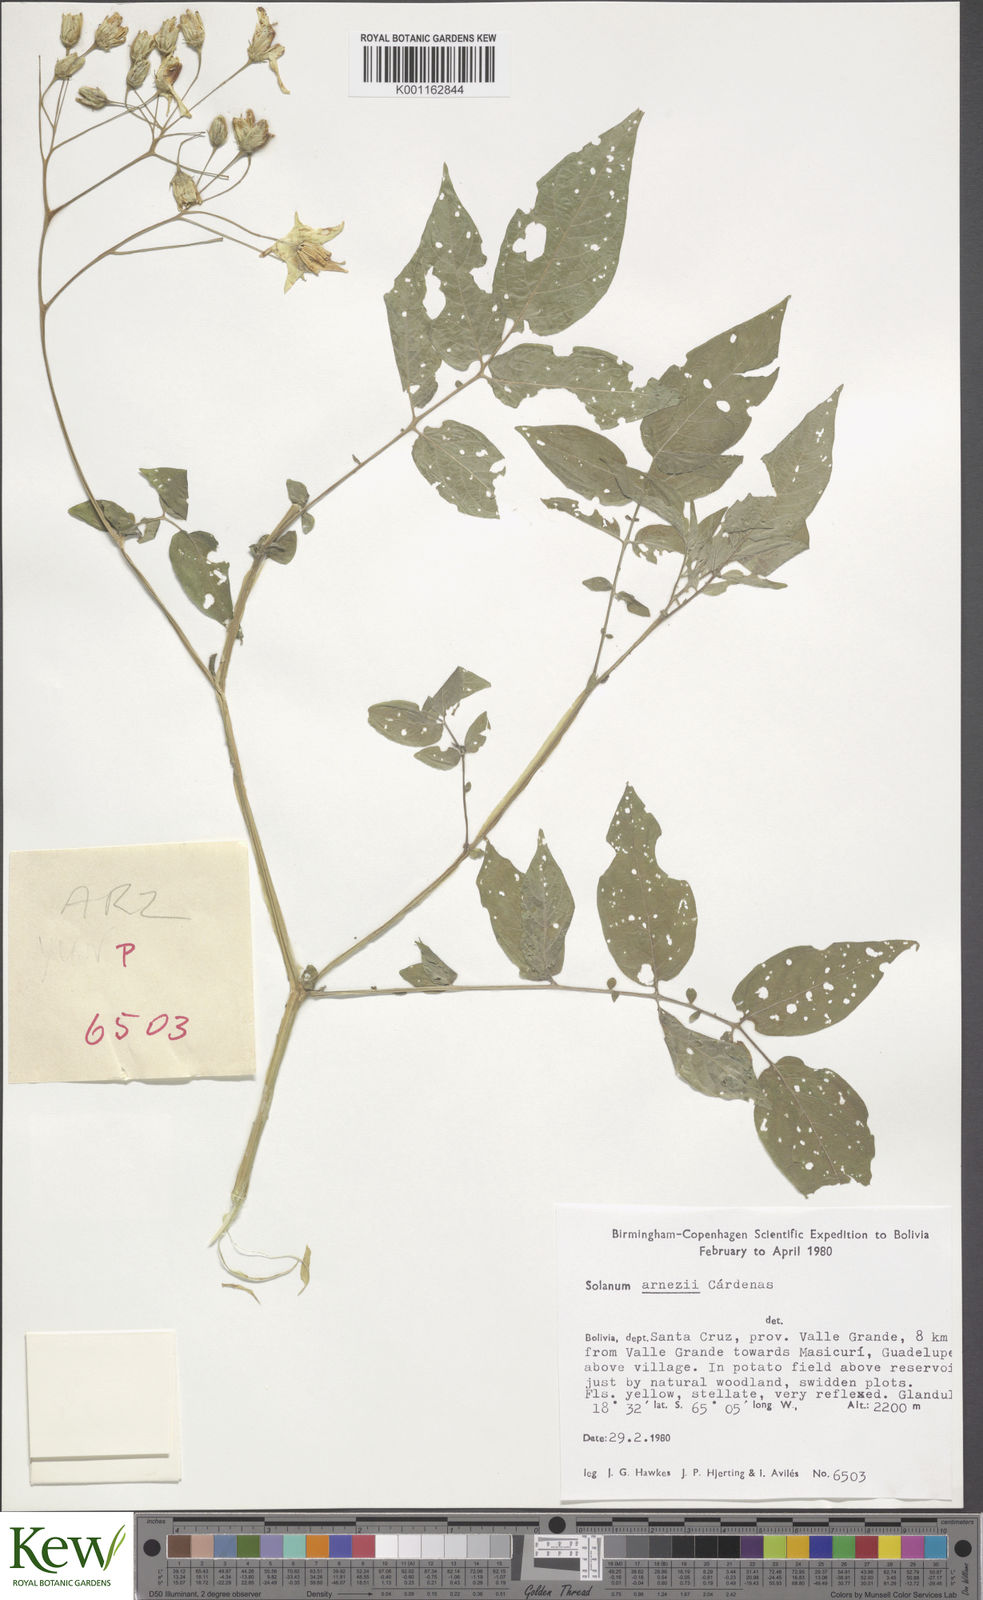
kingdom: Plantae
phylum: Tracheophyta
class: Magnoliopsida
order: Solanales
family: Solanaceae
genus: Solanum
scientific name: Solanum
